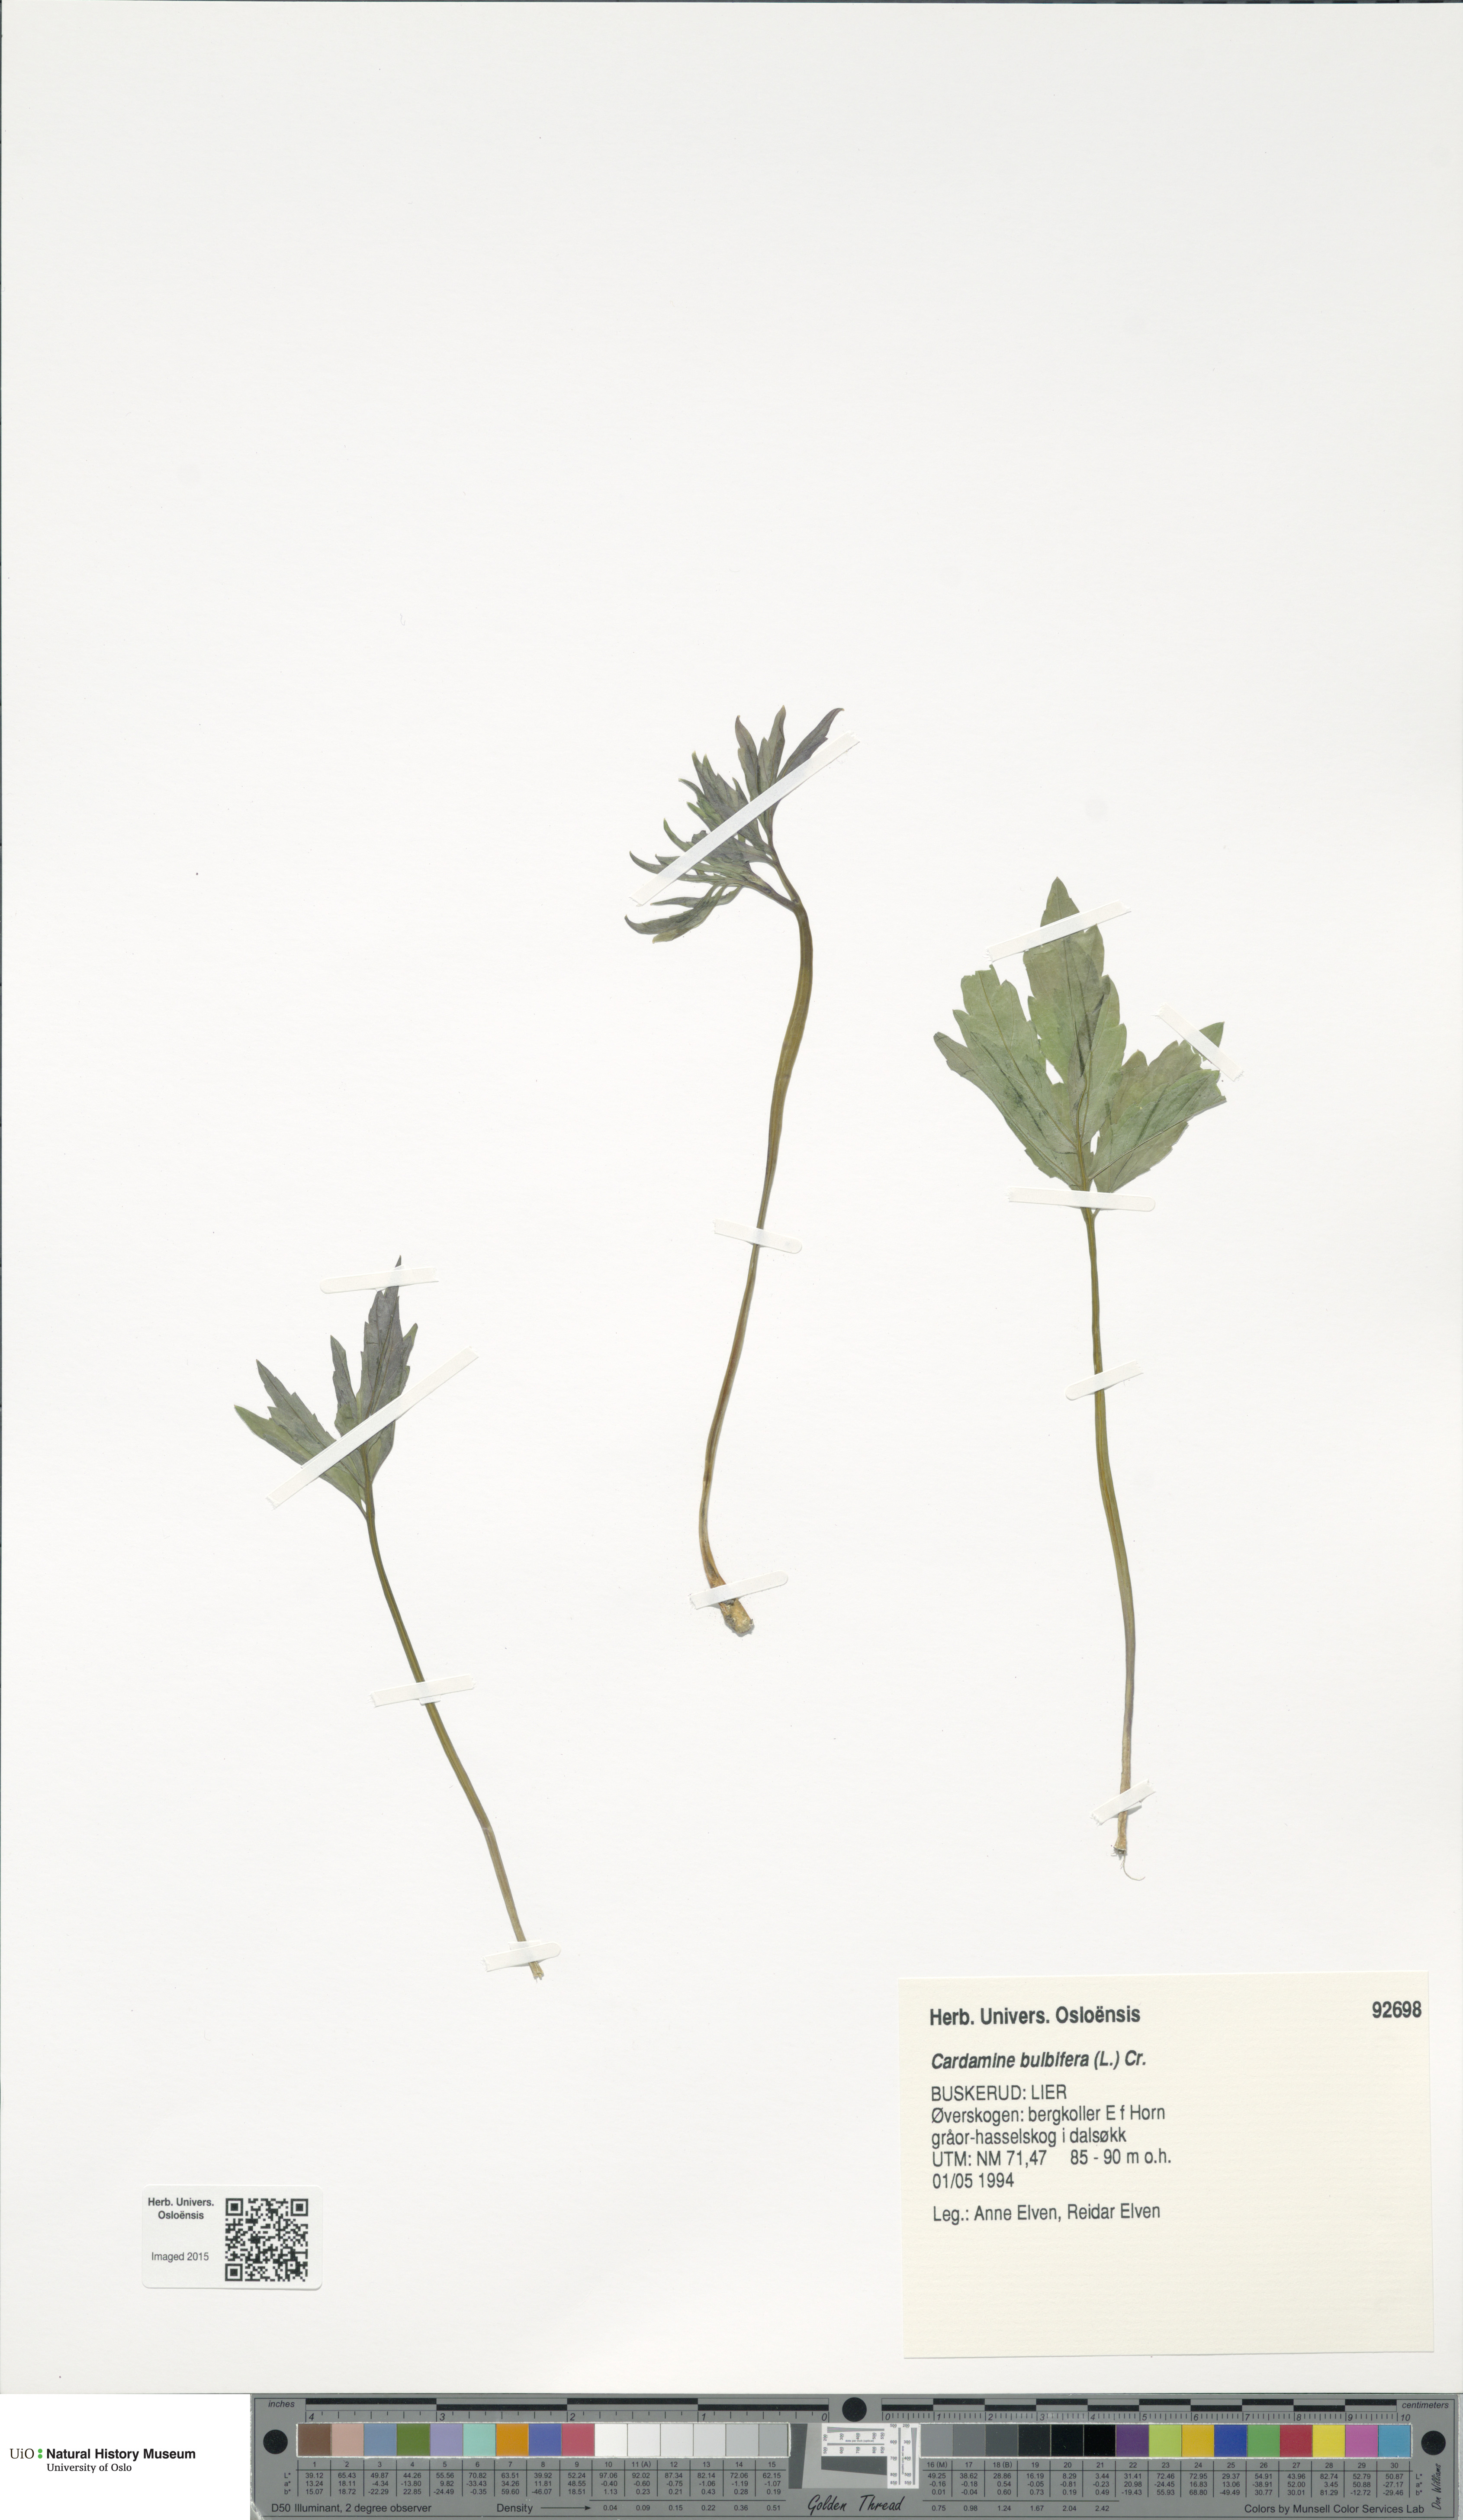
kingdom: Plantae
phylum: Tracheophyta
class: Magnoliopsida
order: Brassicales
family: Brassicaceae
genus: Cardamine
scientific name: Cardamine bulbifera
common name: Coralroot bittercress
